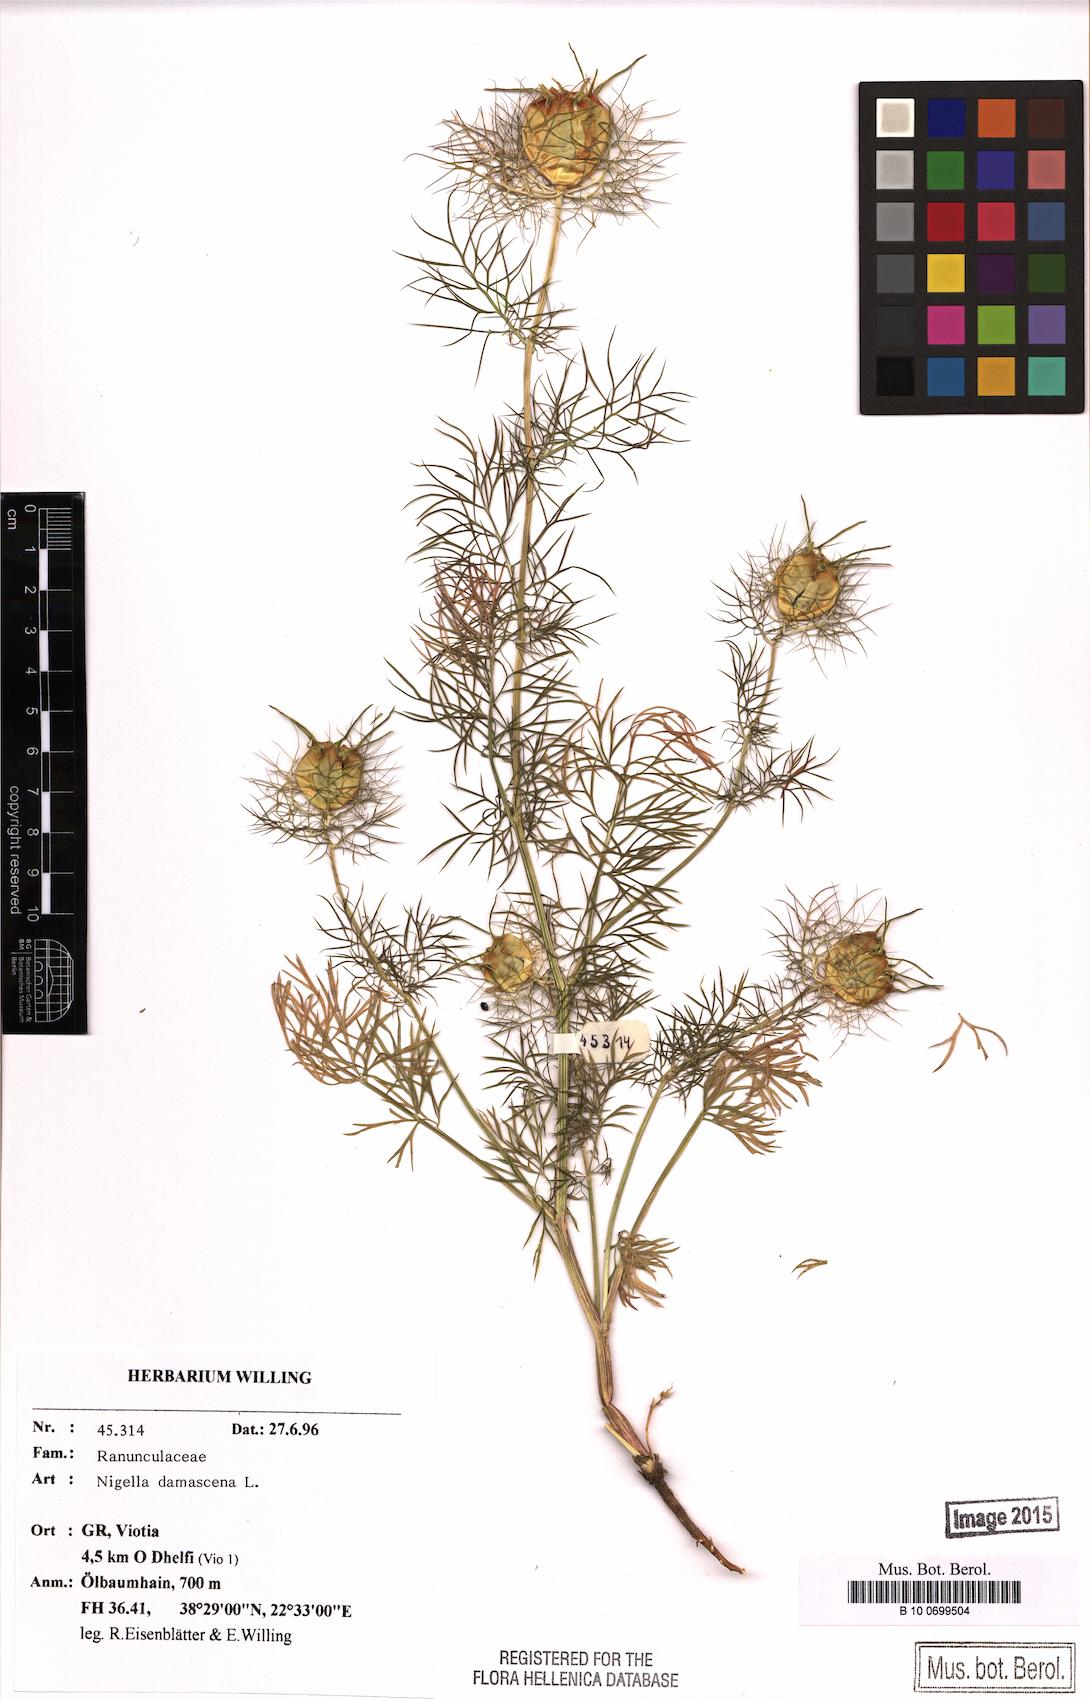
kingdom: Plantae
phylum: Tracheophyta
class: Magnoliopsida
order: Ranunculales
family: Ranunculaceae
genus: Nigella
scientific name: Nigella damascena
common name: Love-in-a-mist
